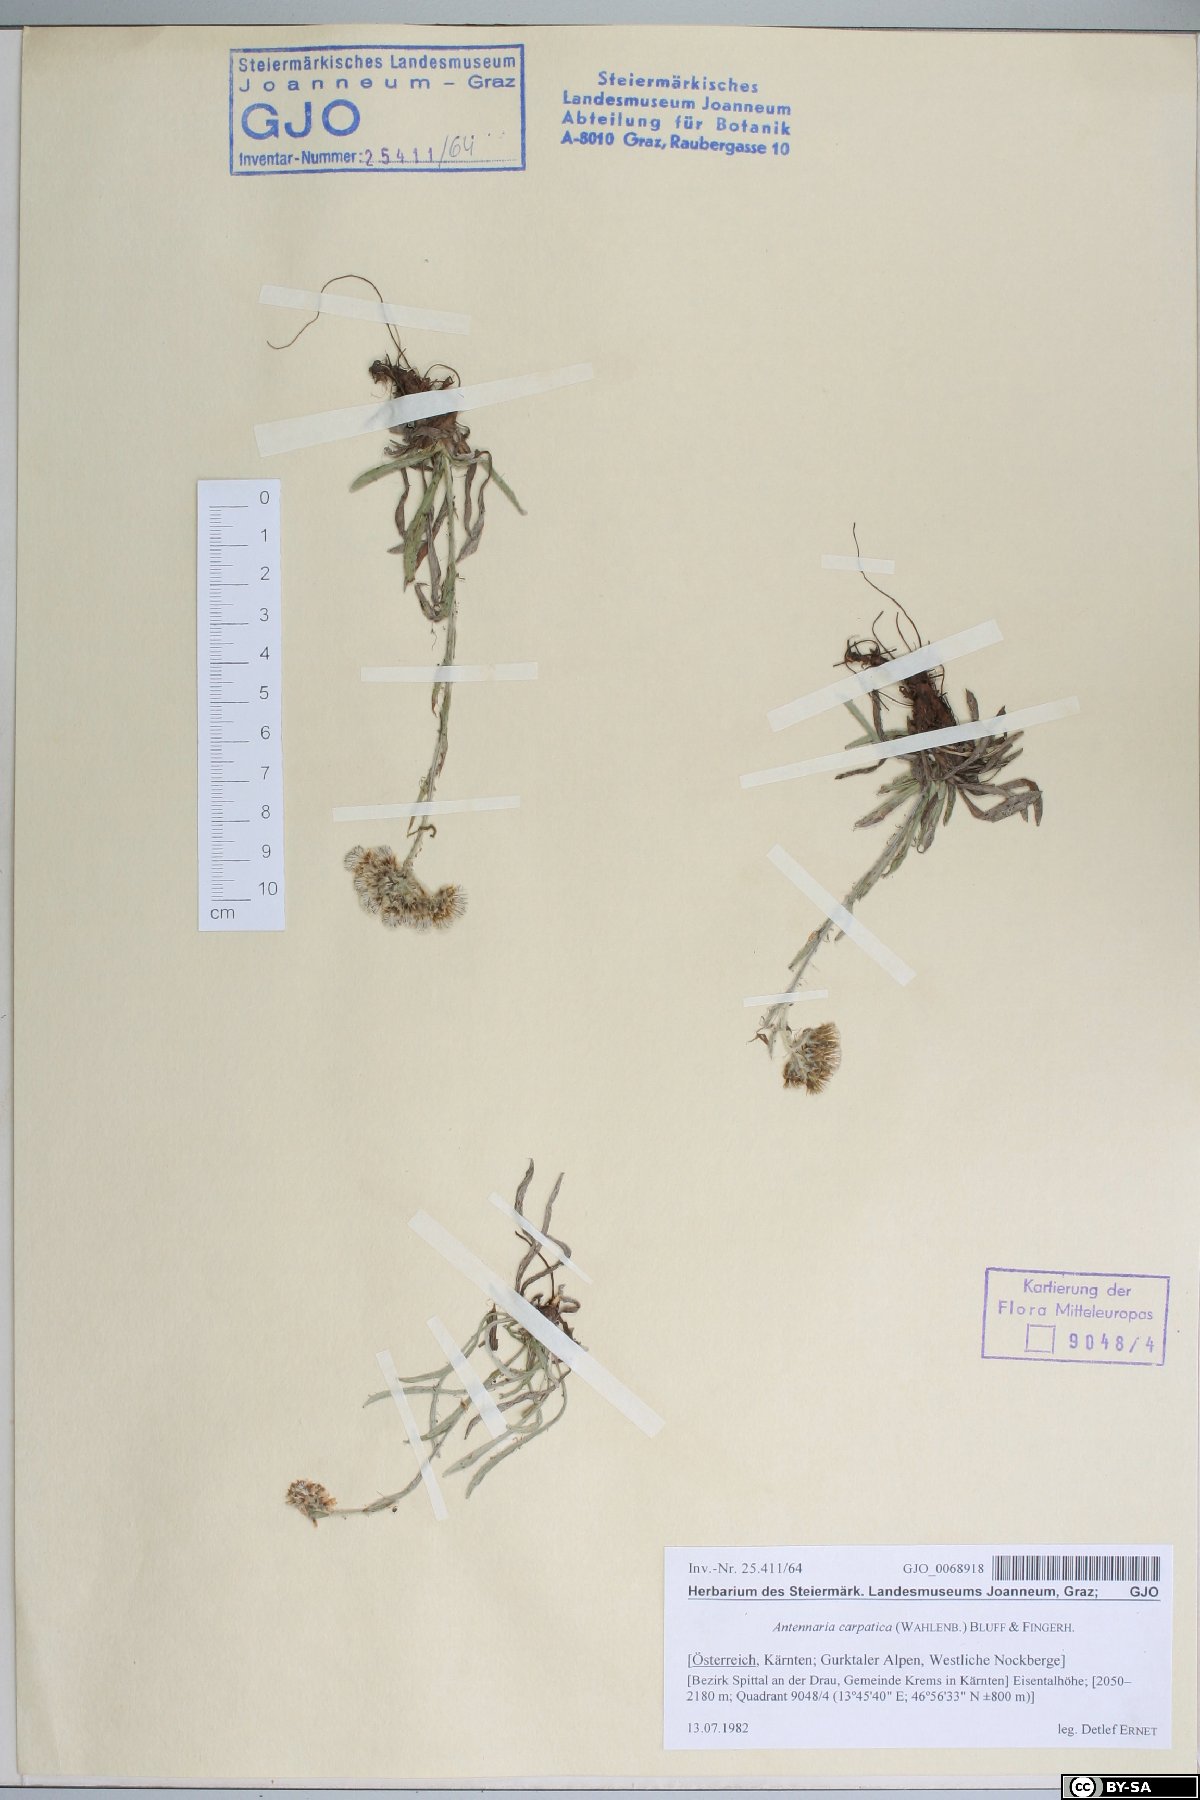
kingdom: Plantae
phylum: Tracheophyta
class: Magnoliopsida
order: Asterales
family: Asteraceae
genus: Antennaria
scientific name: Antennaria carpatica
